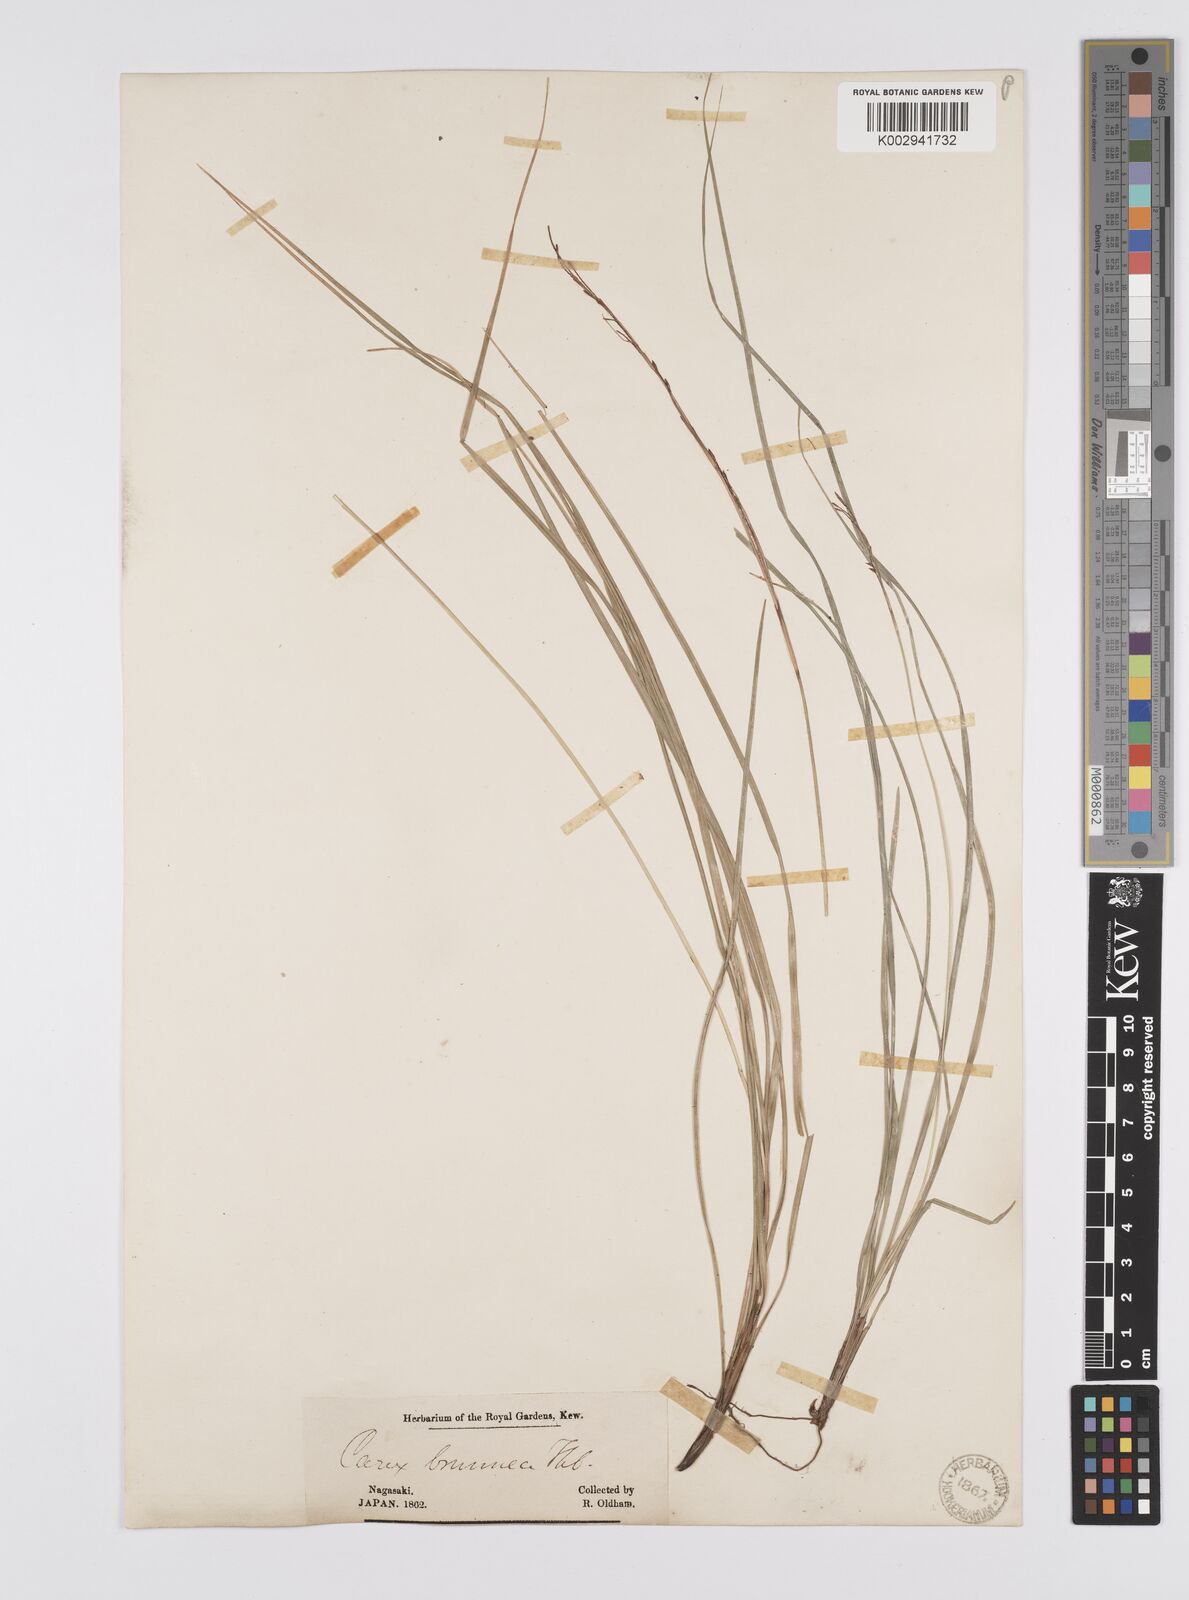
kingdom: Plantae
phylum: Tracheophyta
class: Liliopsida
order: Poales
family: Cyperaceae
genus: Carex
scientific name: Carex brunnea
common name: Greater brown sedge
